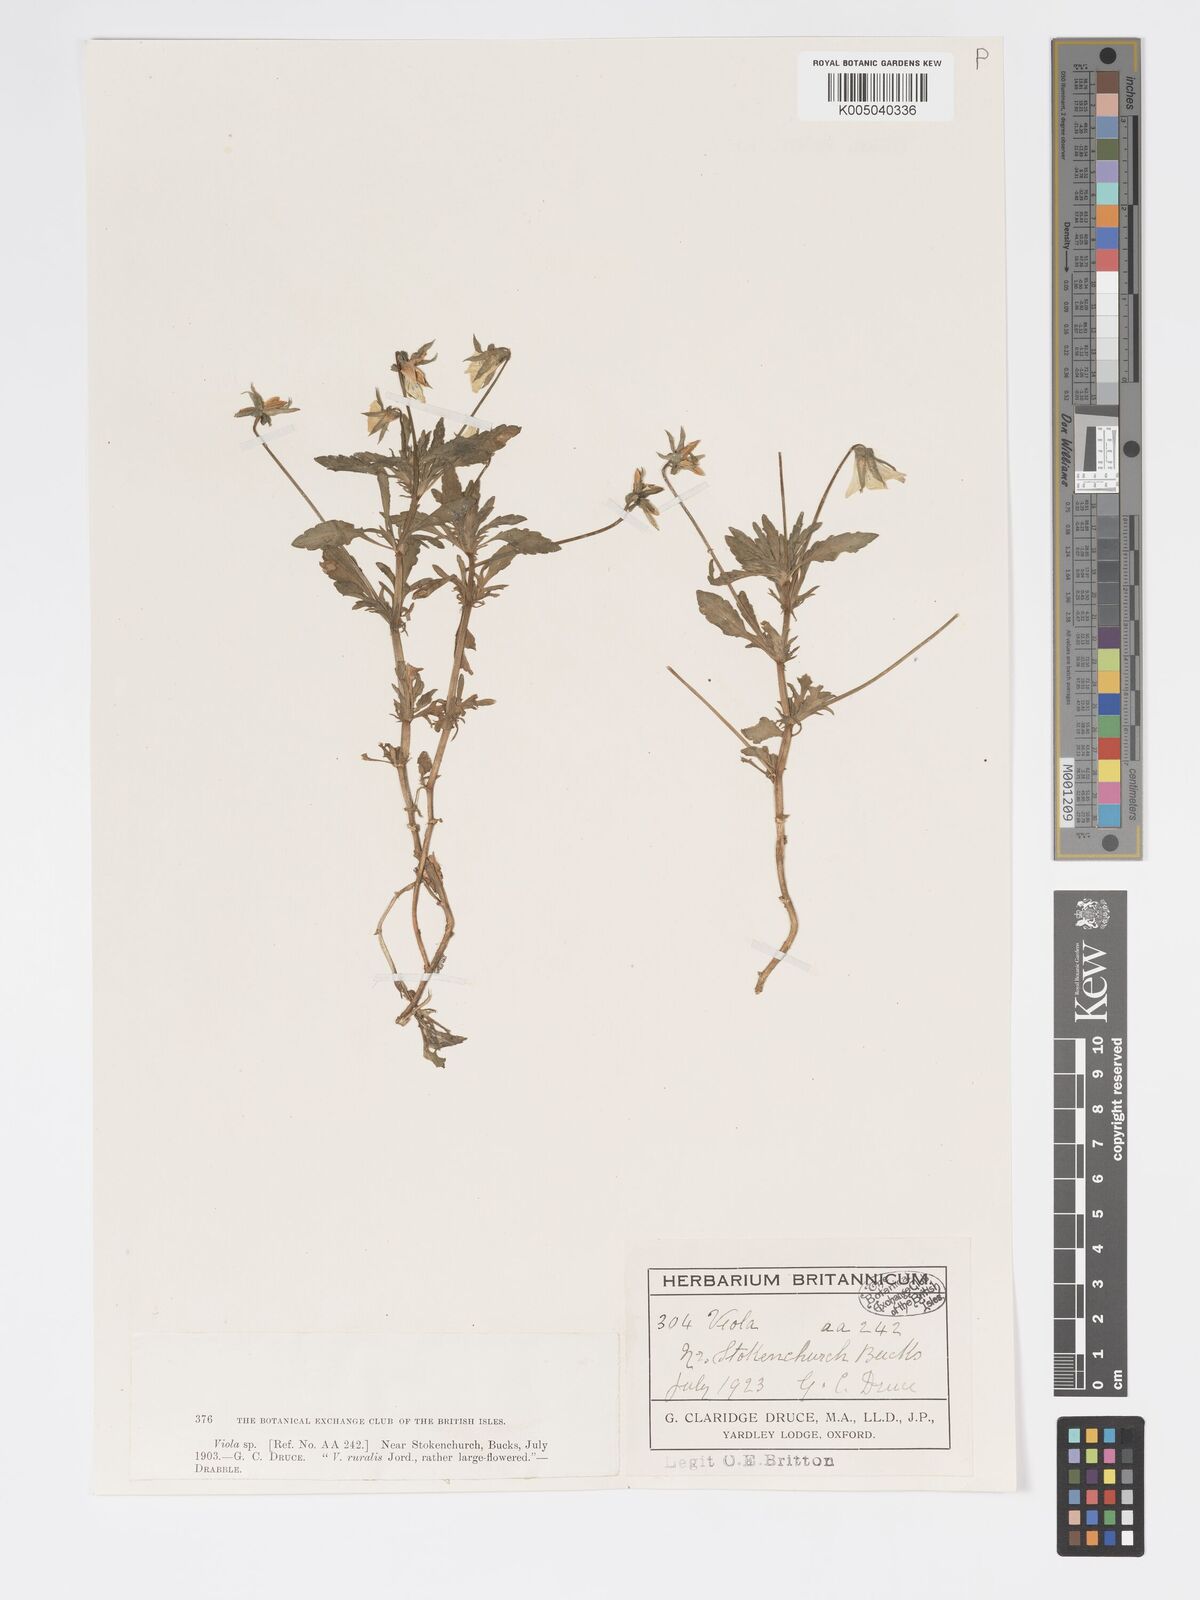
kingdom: Plantae
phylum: Tracheophyta
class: Magnoliopsida
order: Malpighiales
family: Violaceae
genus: Viola
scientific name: Viola arvensis
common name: Field pansy
